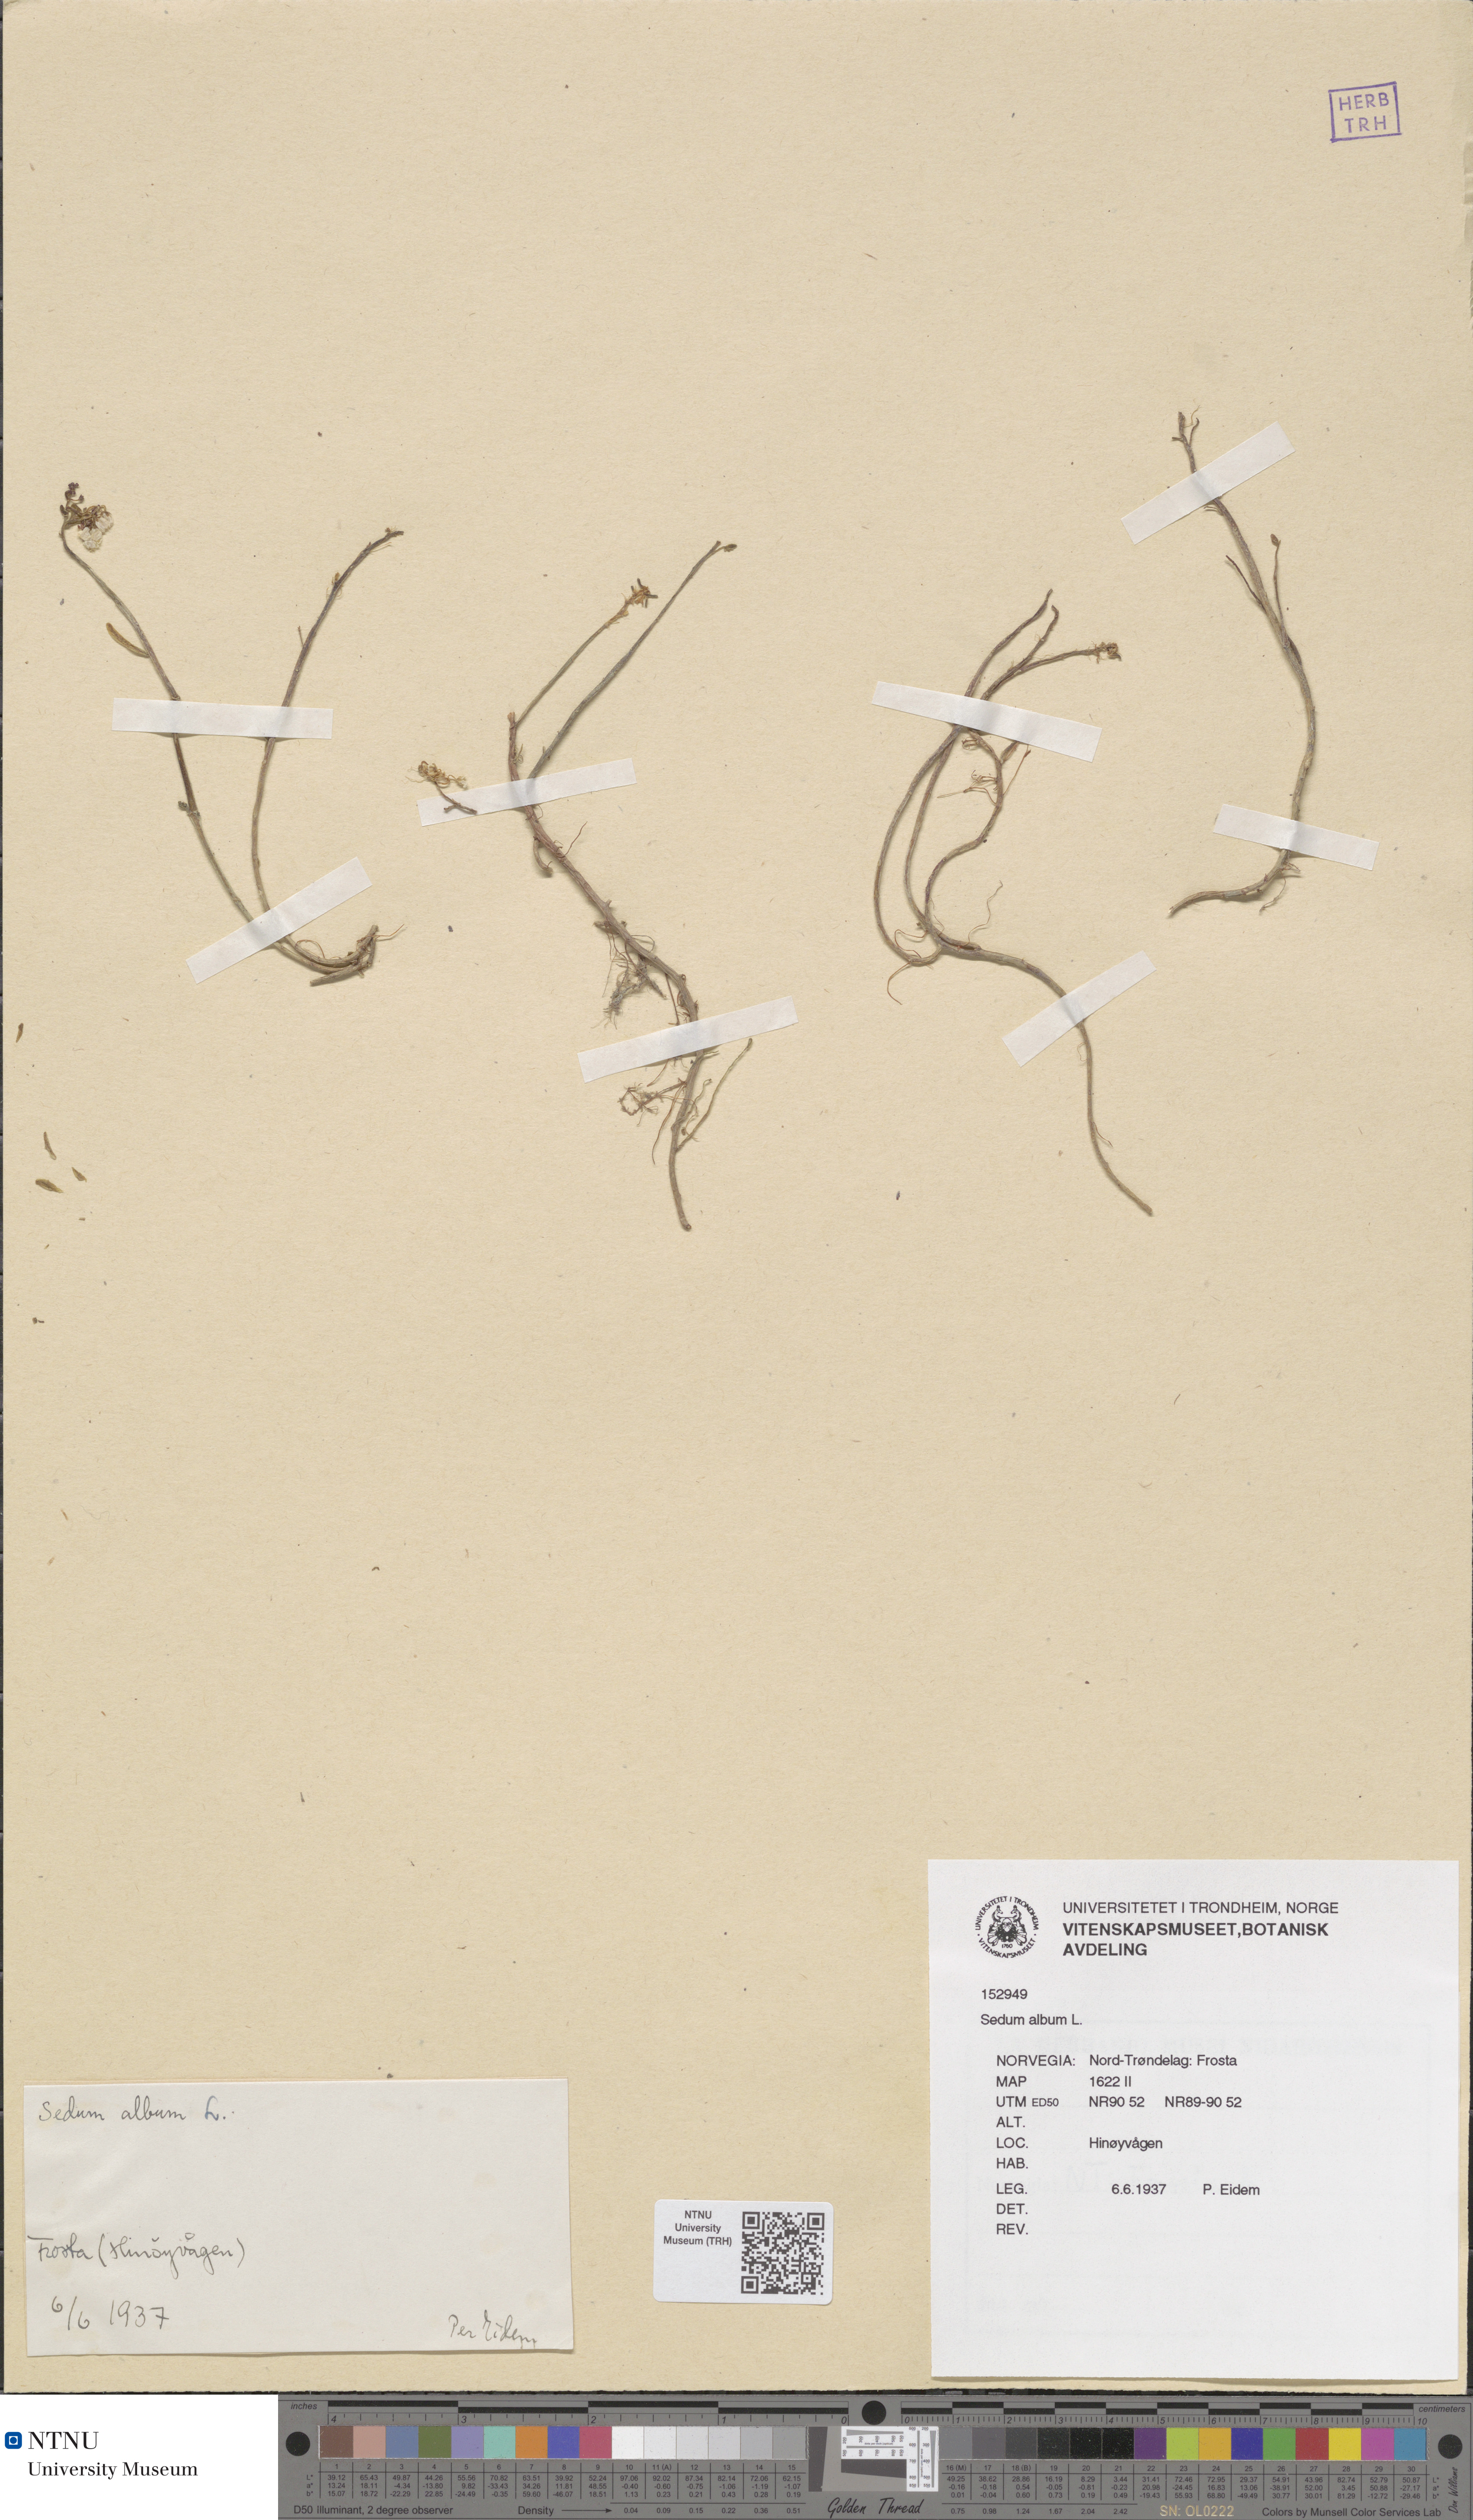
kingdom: Plantae
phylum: Tracheophyta
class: Magnoliopsida
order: Saxifragales
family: Crassulaceae
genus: Sedum
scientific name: Sedum album
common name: White stonecrop
